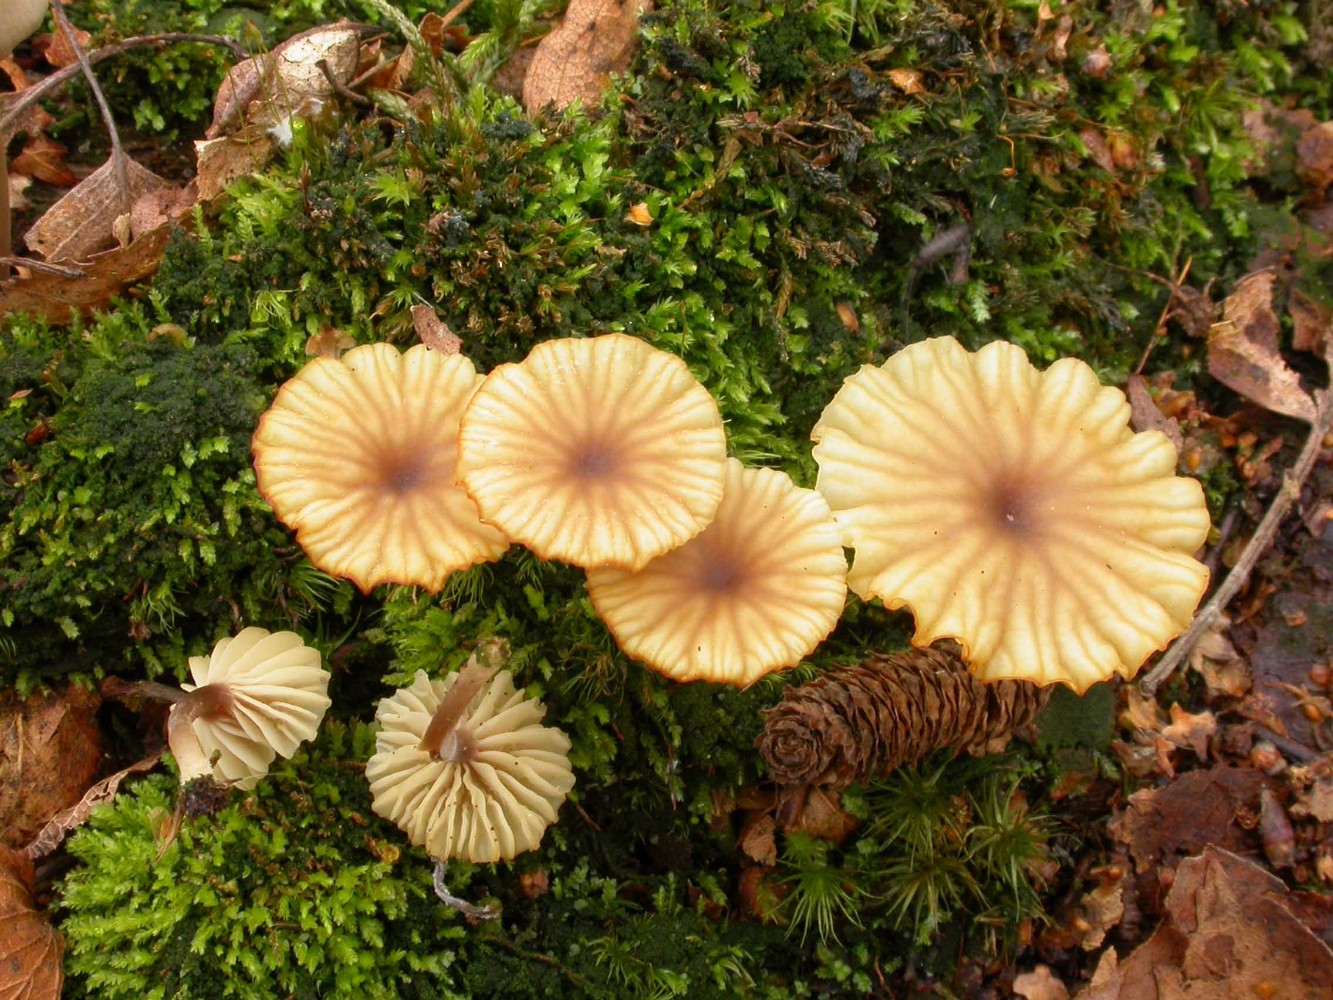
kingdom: Fungi
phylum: Basidiomycota
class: Agaricomycetes
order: Agaricales
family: Hygrophoraceae
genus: Lichenomphalia
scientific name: Lichenomphalia umbellifera
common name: tørve-lavhat
